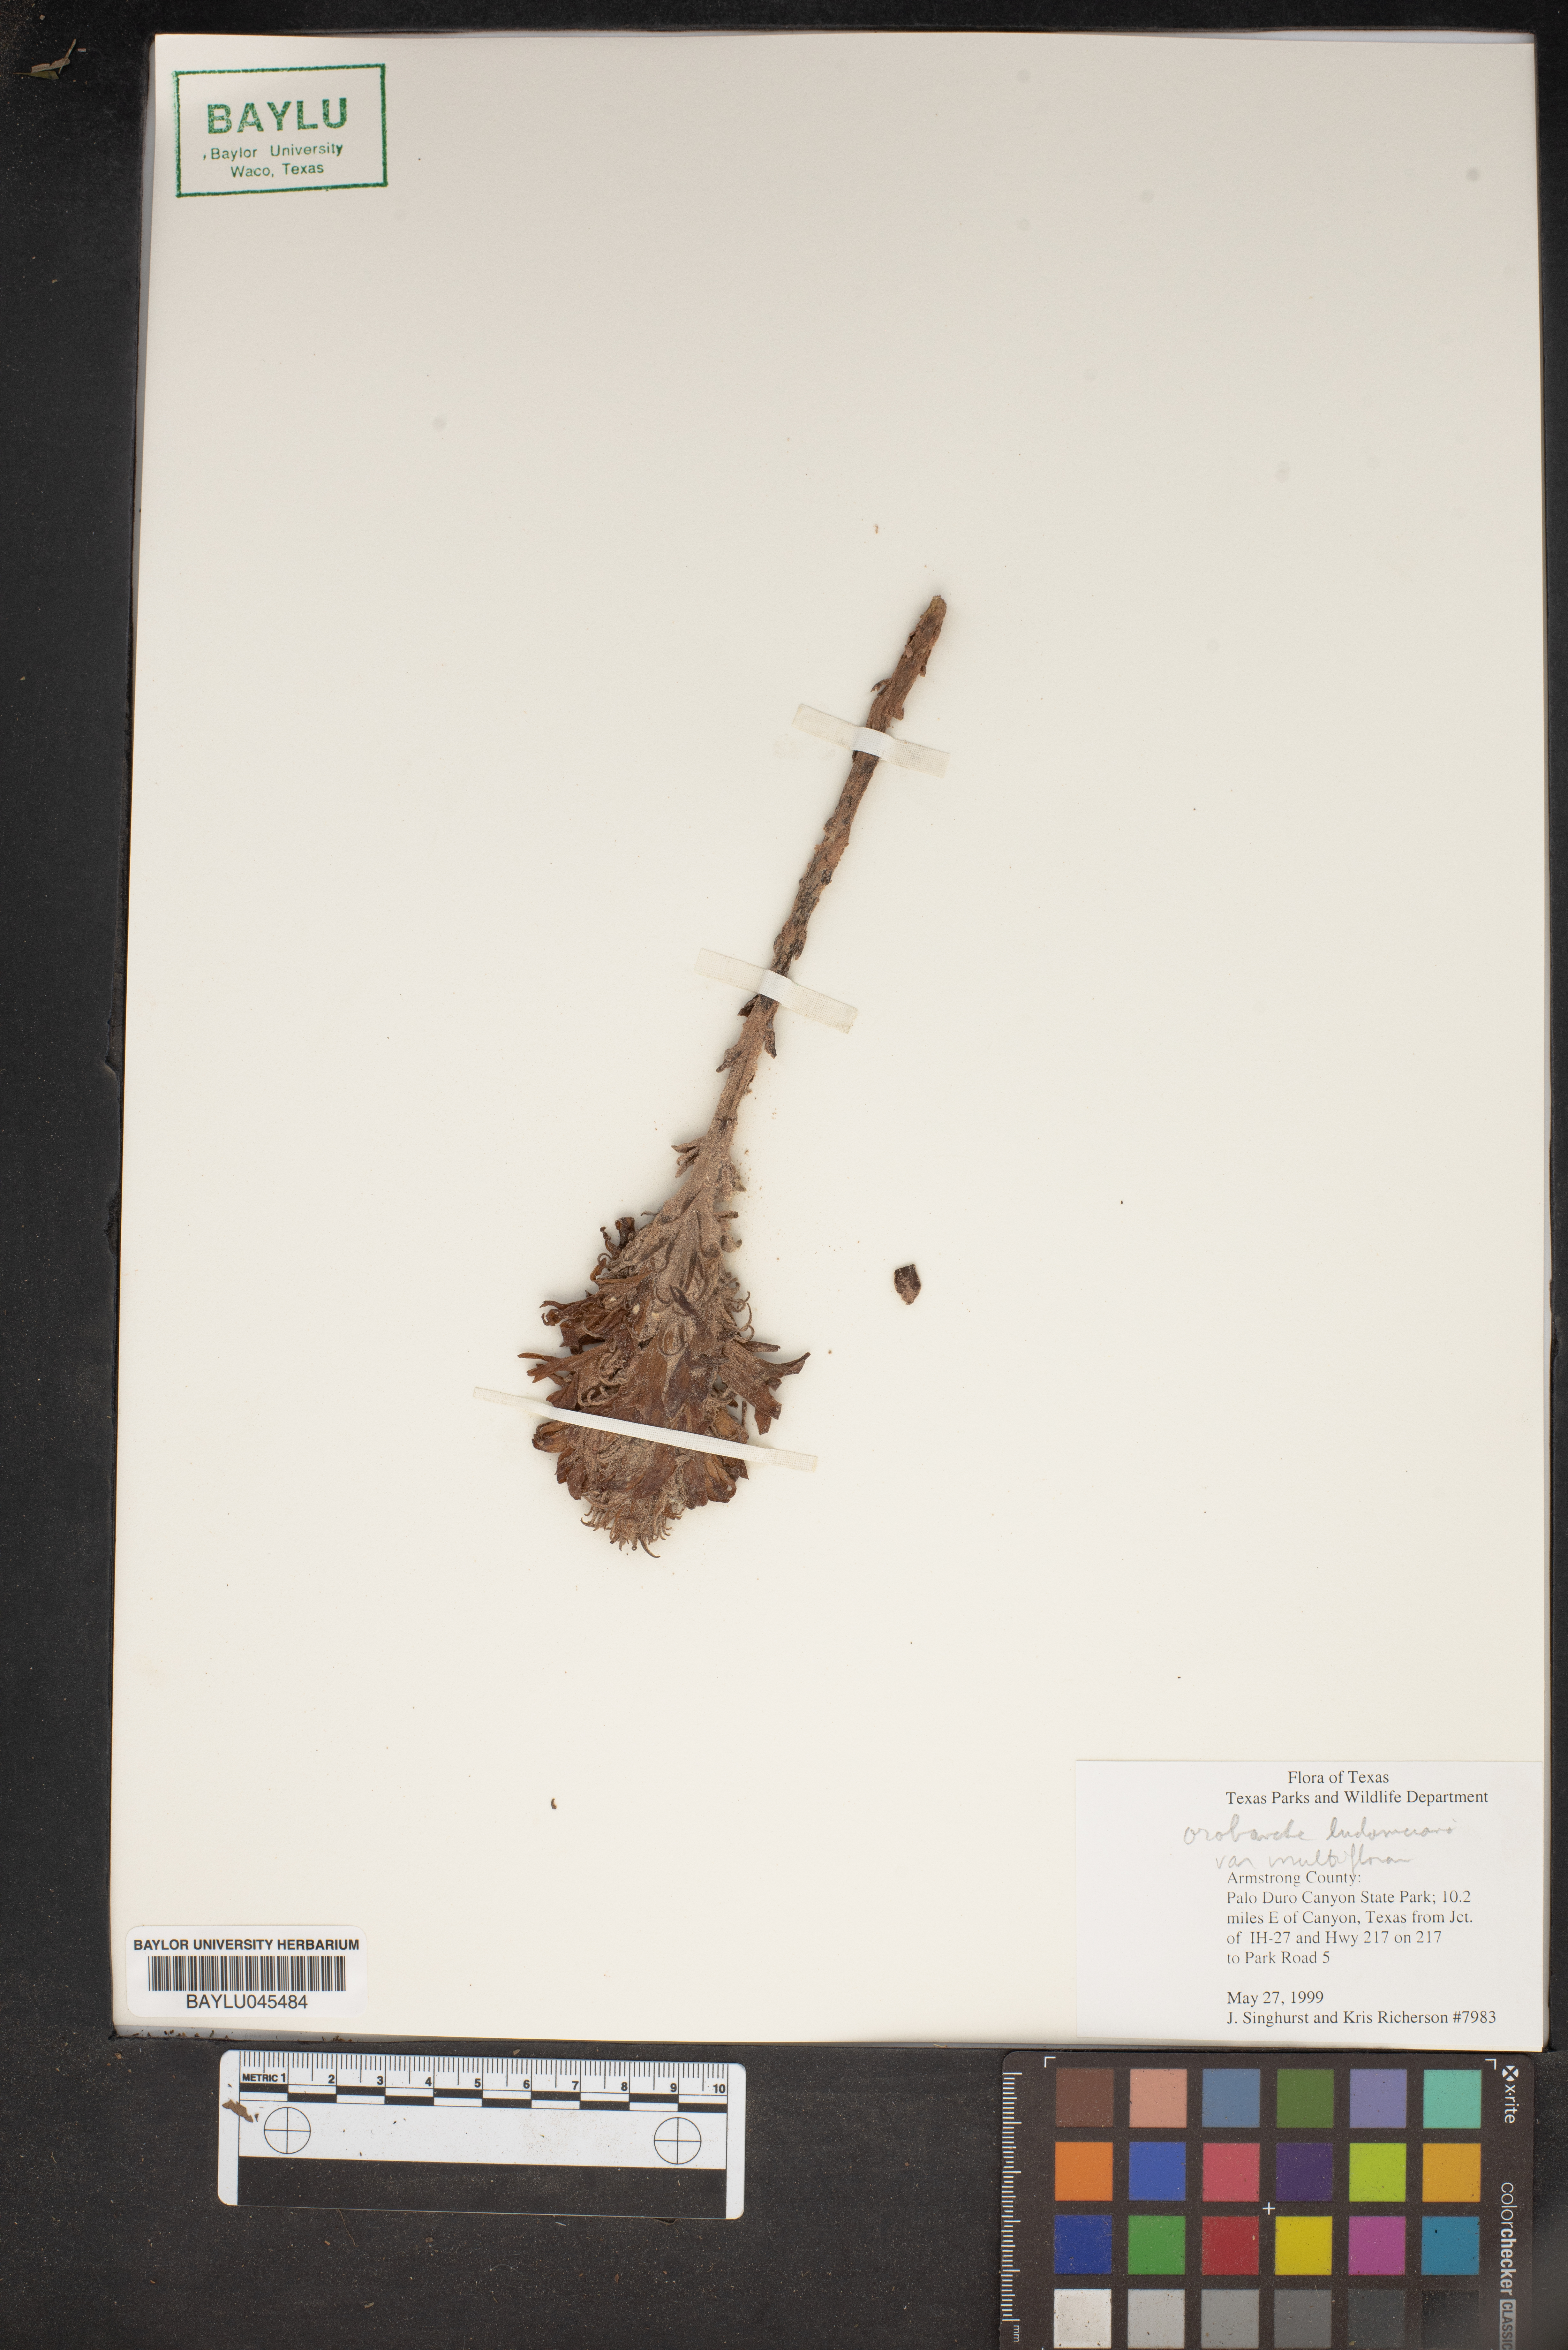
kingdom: Plantae
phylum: Tracheophyta
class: Magnoliopsida
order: Lamiales
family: Orobanchaceae
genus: Aphyllon
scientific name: Aphyllon ludovicianum
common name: Louisiana broomrape
